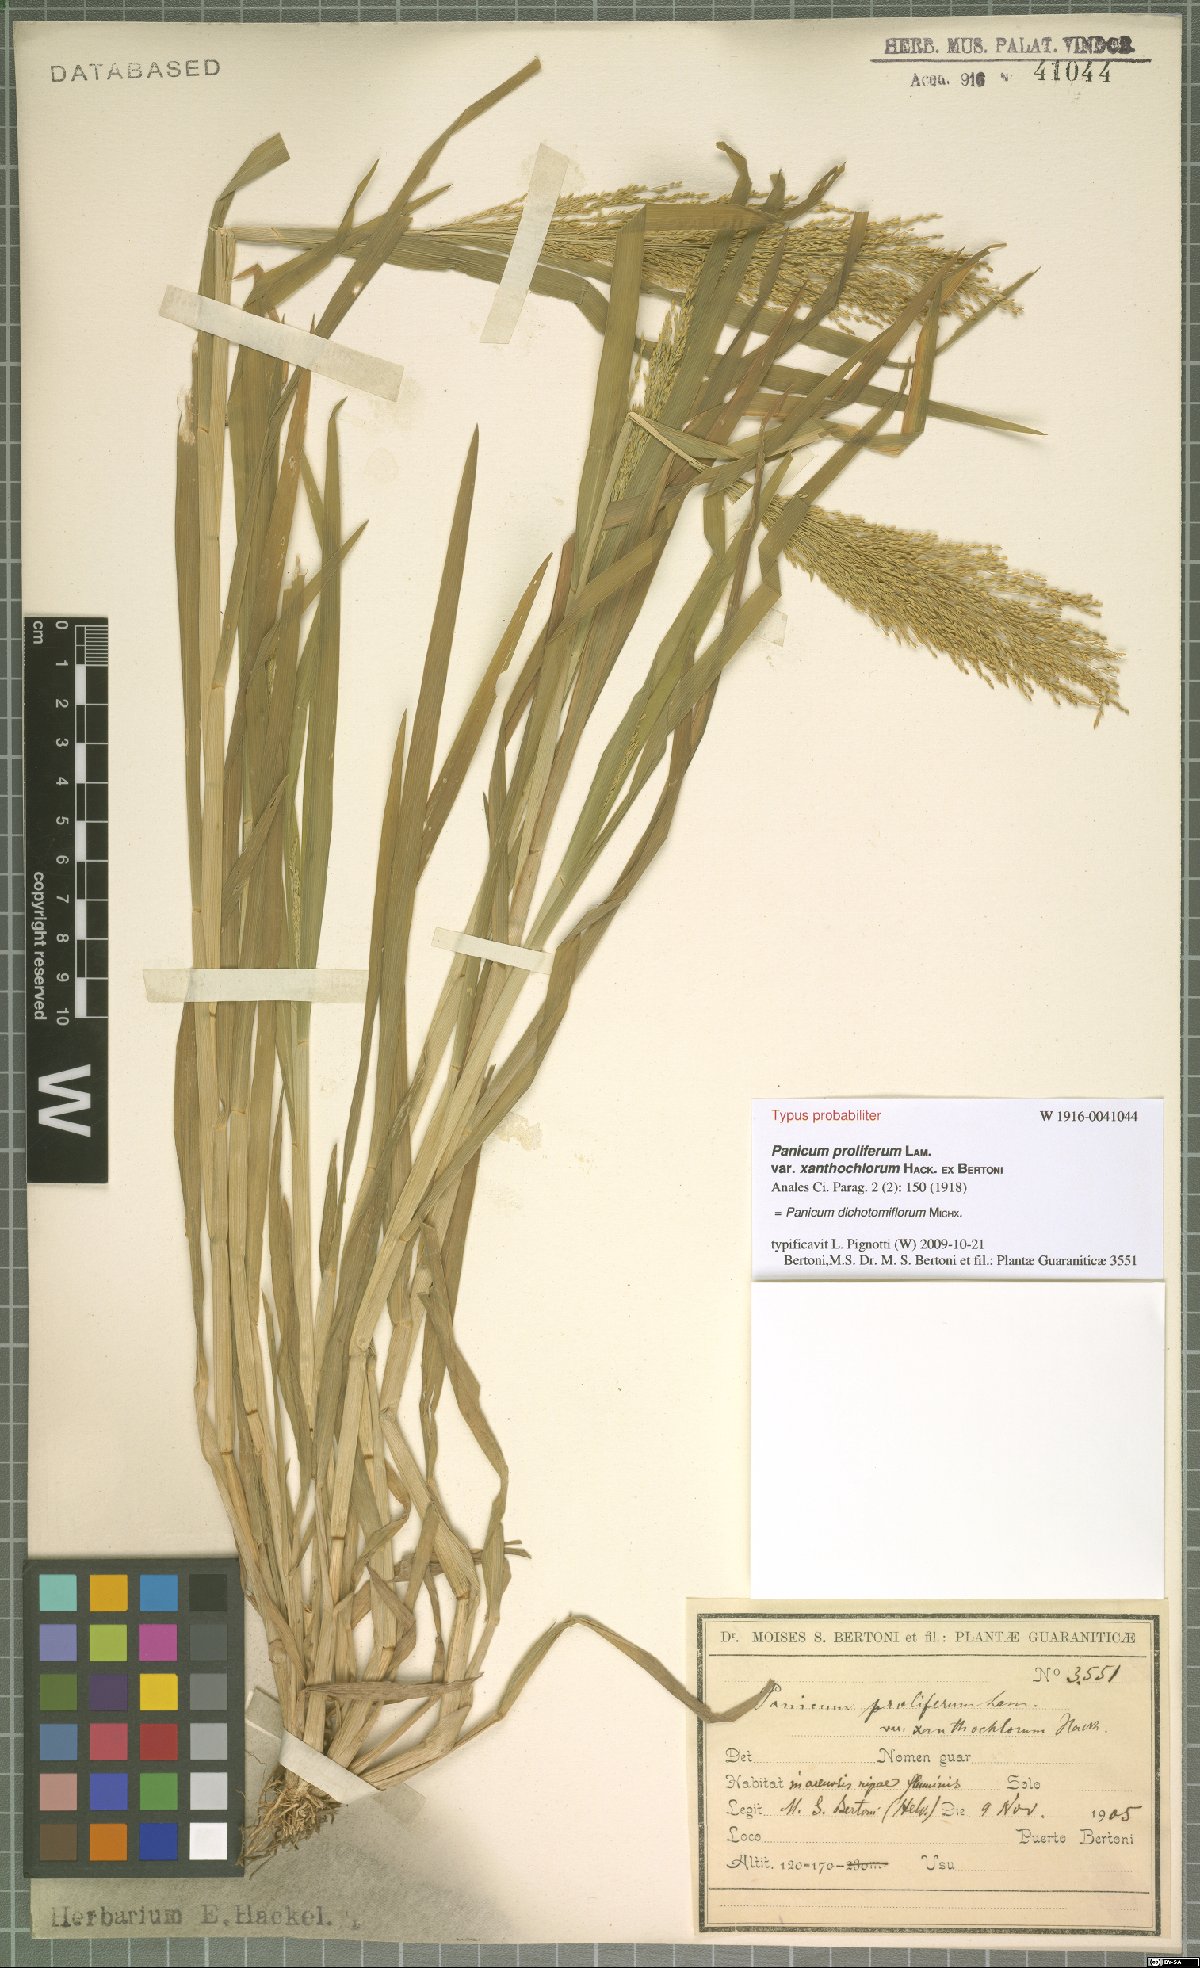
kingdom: Plantae
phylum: Tracheophyta
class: Liliopsida
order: Poales
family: Poaceae
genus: Panicum
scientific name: Panicum dichotomiflorum
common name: Autumn millet
